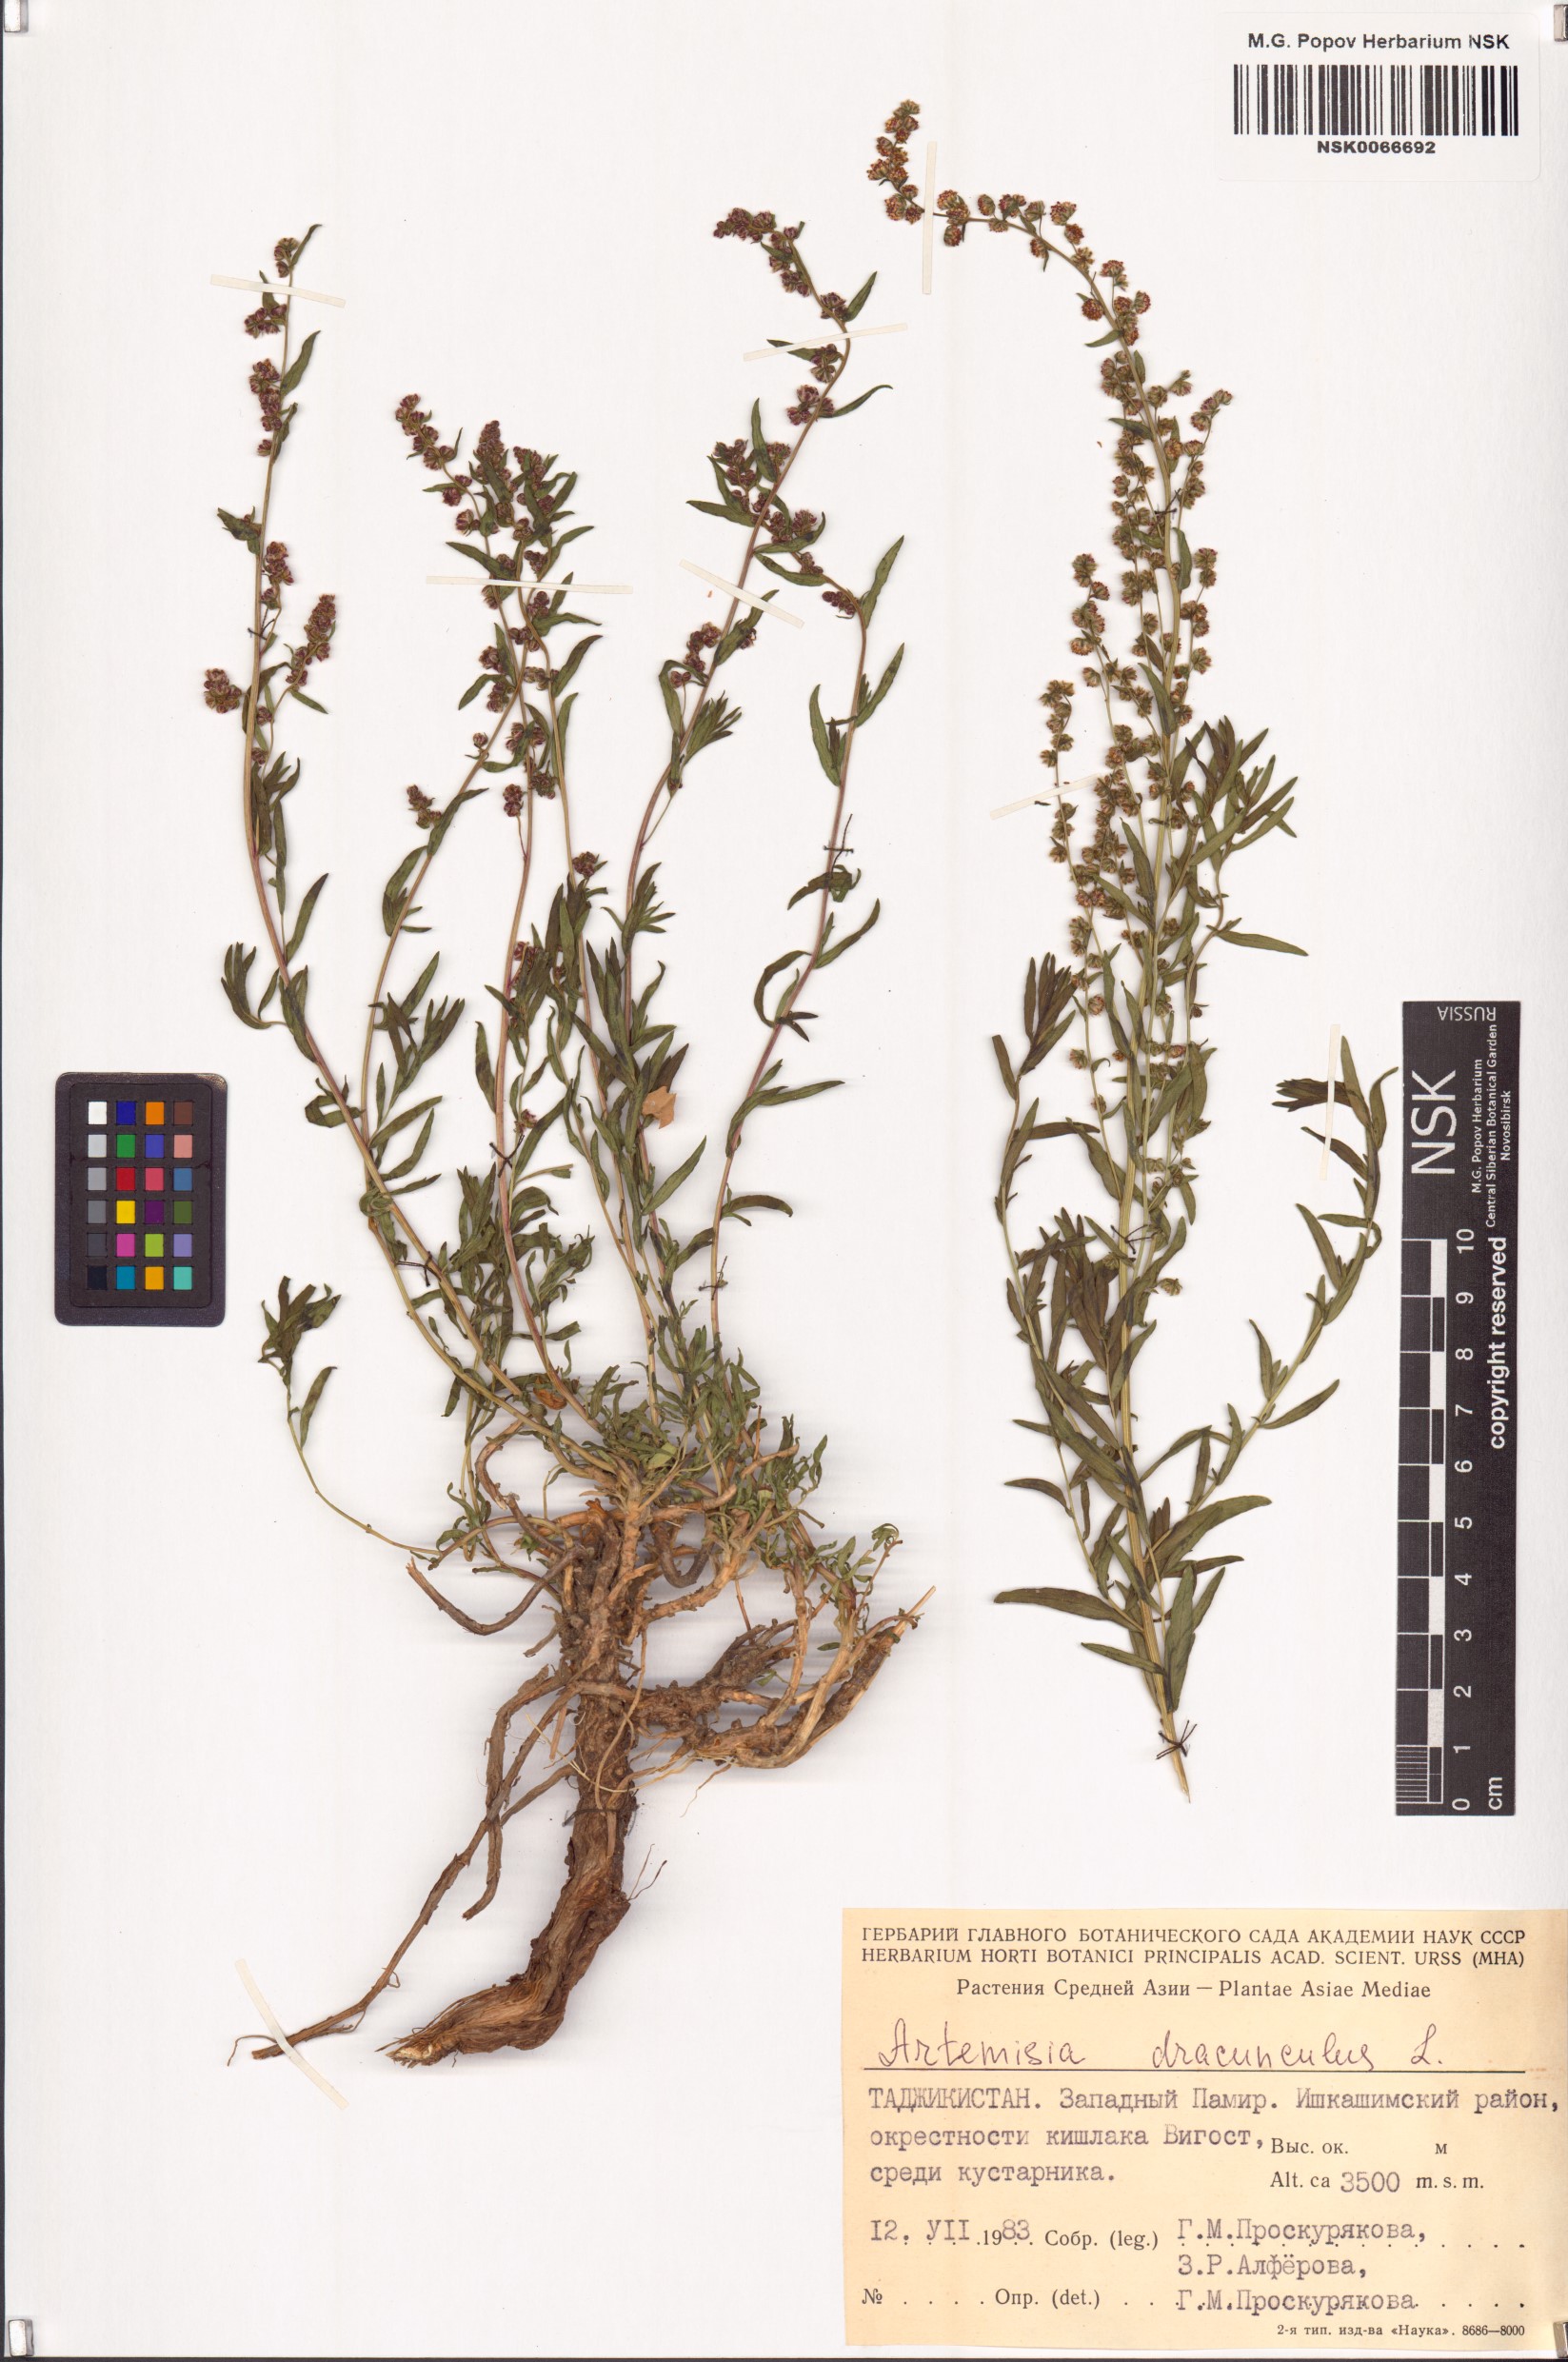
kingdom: Plantae
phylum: Tracheophyta
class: Magnoliopsida
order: Asterales
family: Asteraceae
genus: Artemisia
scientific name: Artemisia dracunculus
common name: Tarragon
